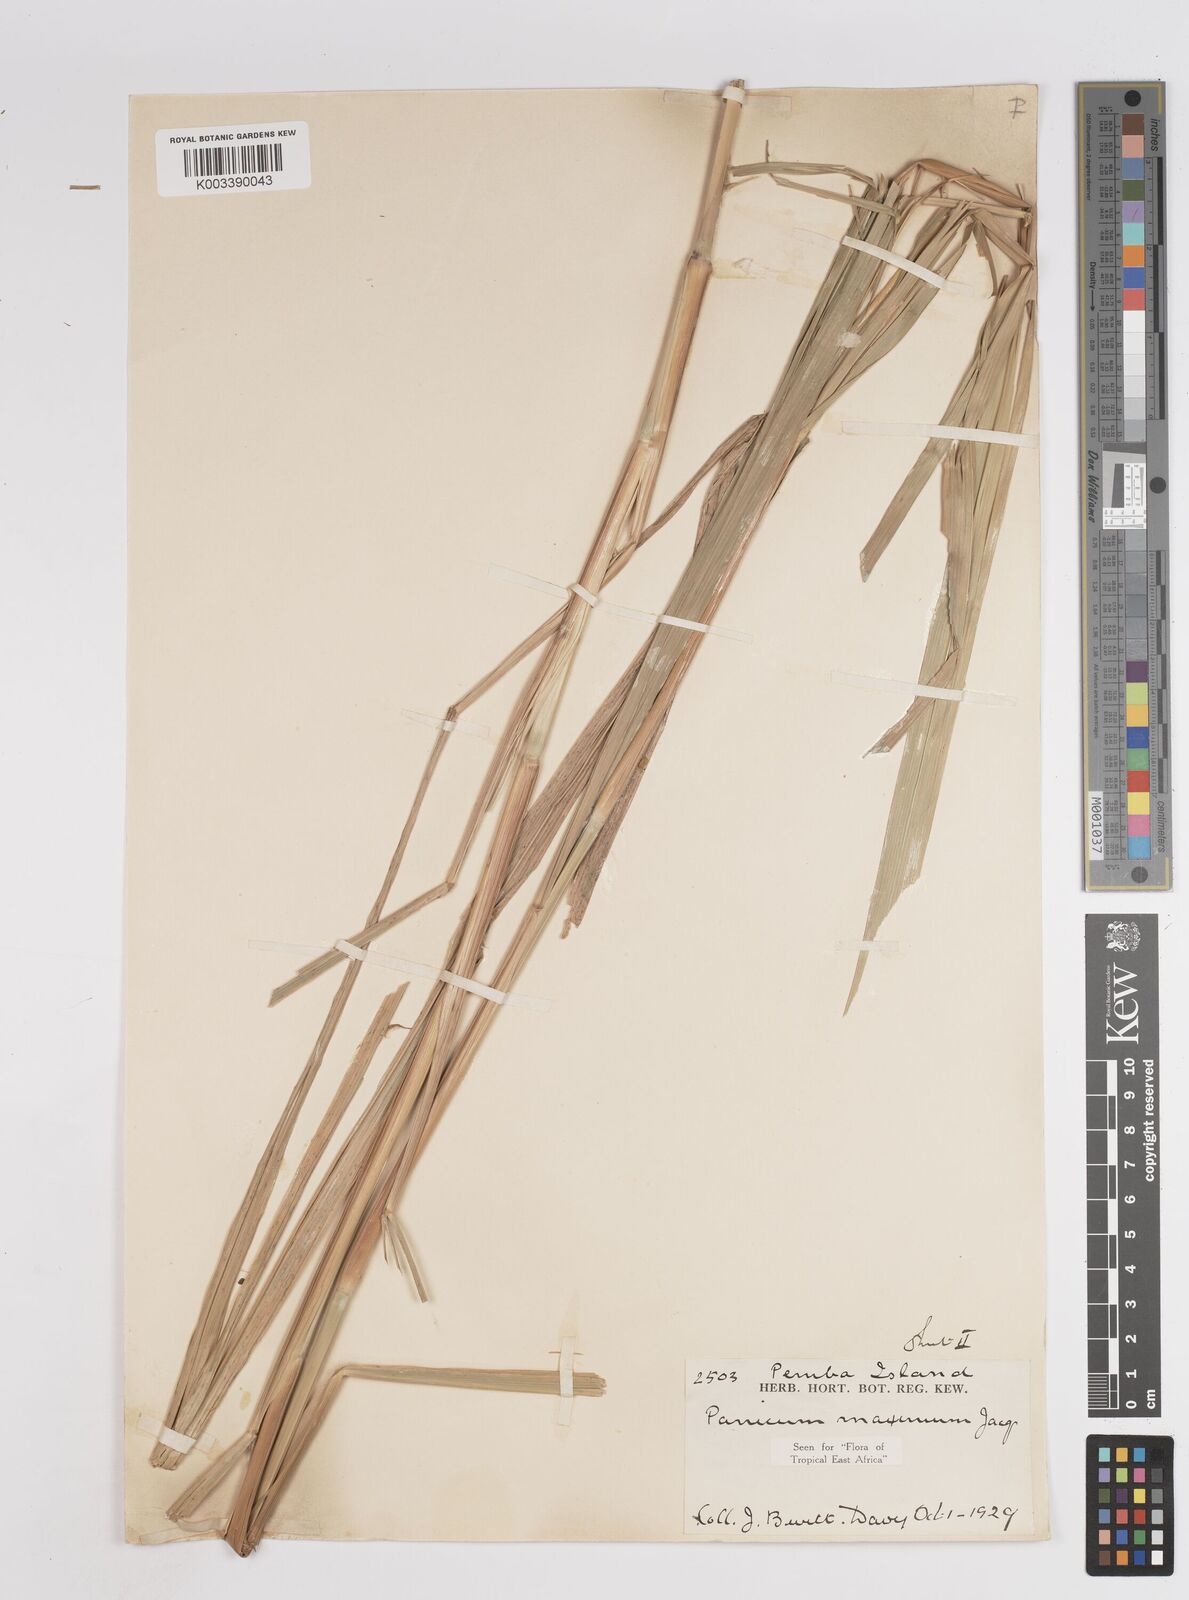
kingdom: Plantae
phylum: Tracheophyta
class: Liliopsida
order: Poales
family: Poaceae
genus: Megathyrsus
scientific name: Megathyrsus maximus
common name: Guineagrass
